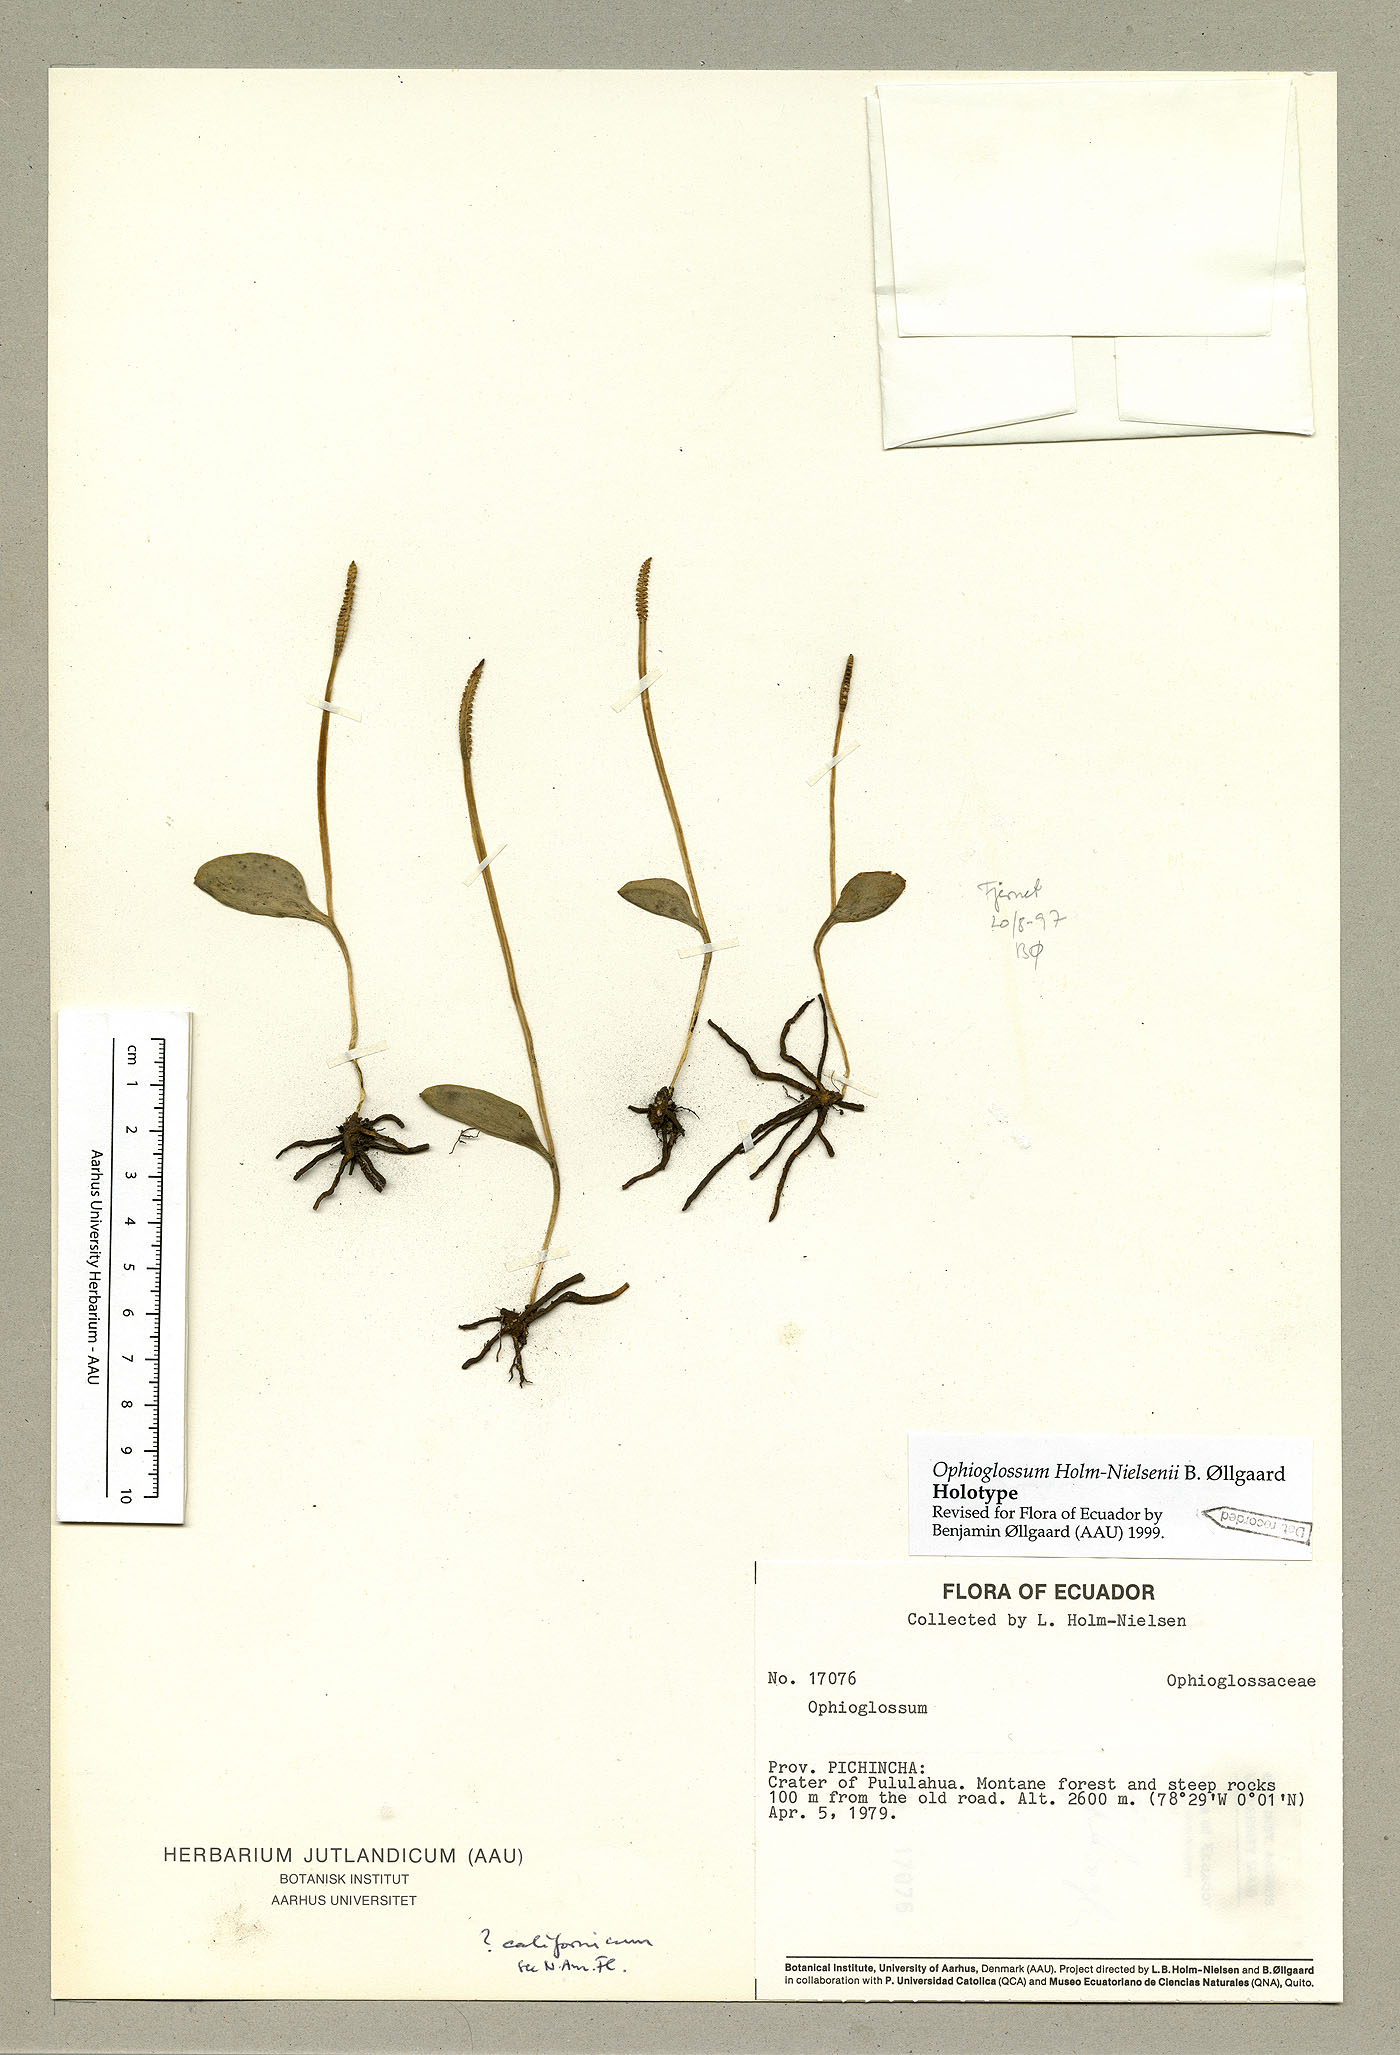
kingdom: Plantae
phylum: Tracheophyta
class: Polypodiopsida
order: Ophioglossales
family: Ophioglossaceae
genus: Ophioglossum
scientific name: Ophioglossum reticulatum
